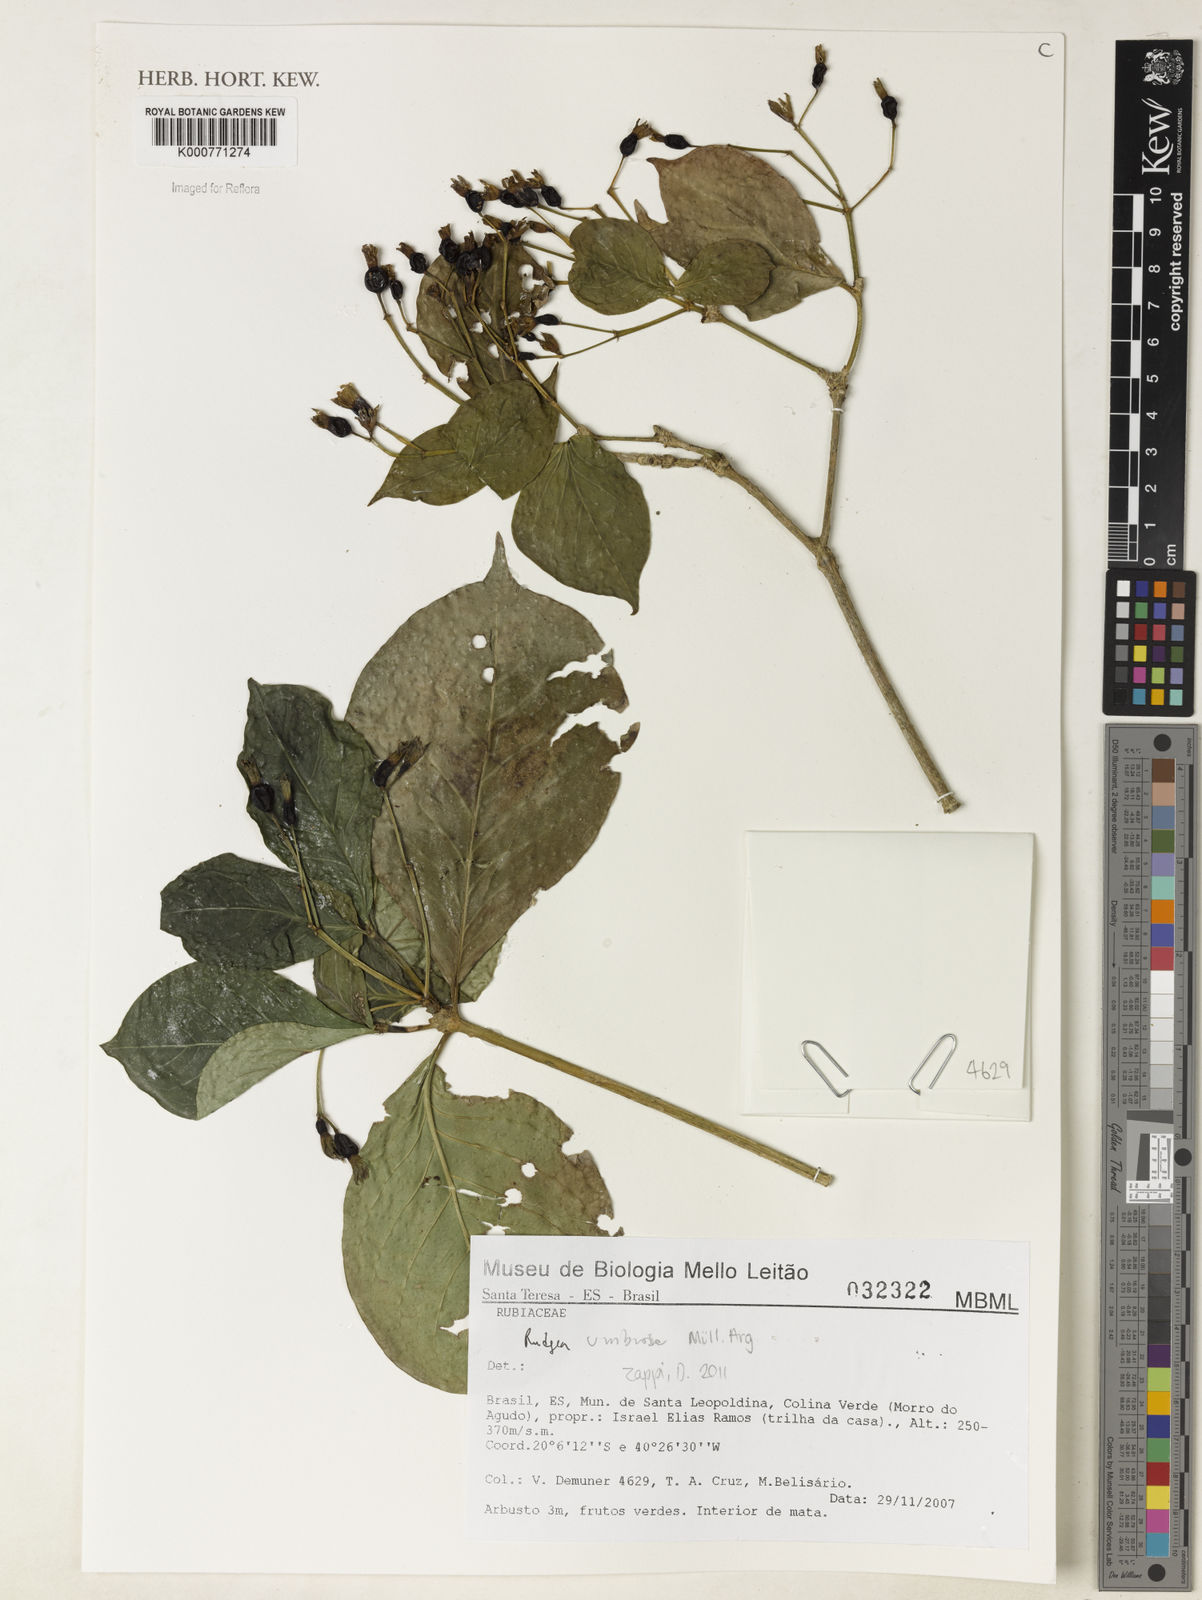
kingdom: Plantae
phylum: Tracheophyta
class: Magnoliopsida
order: Gentianales
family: Rubiaceae
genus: Rudgea
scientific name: Rudgea
